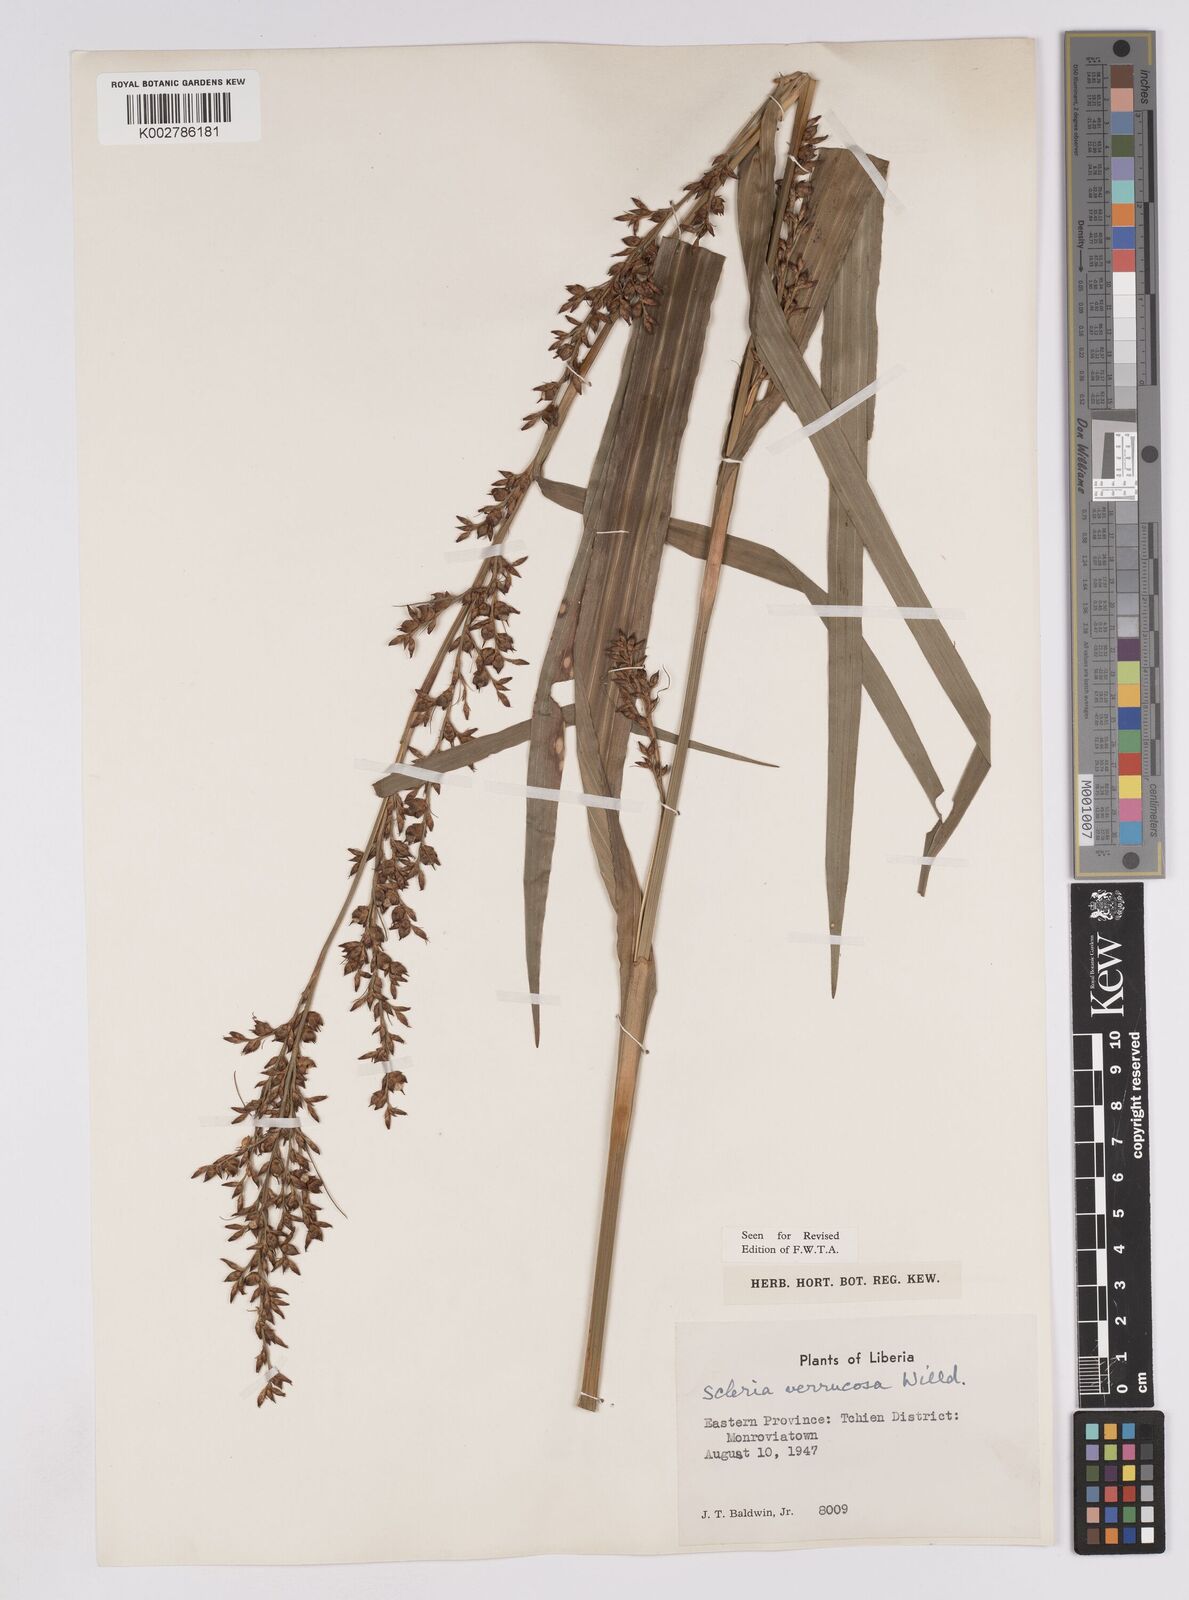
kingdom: Plantae
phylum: Tracheophyta
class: Liliopsida
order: Poales
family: Cyperaceae
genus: Scleria
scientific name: Scleria verrucosa
